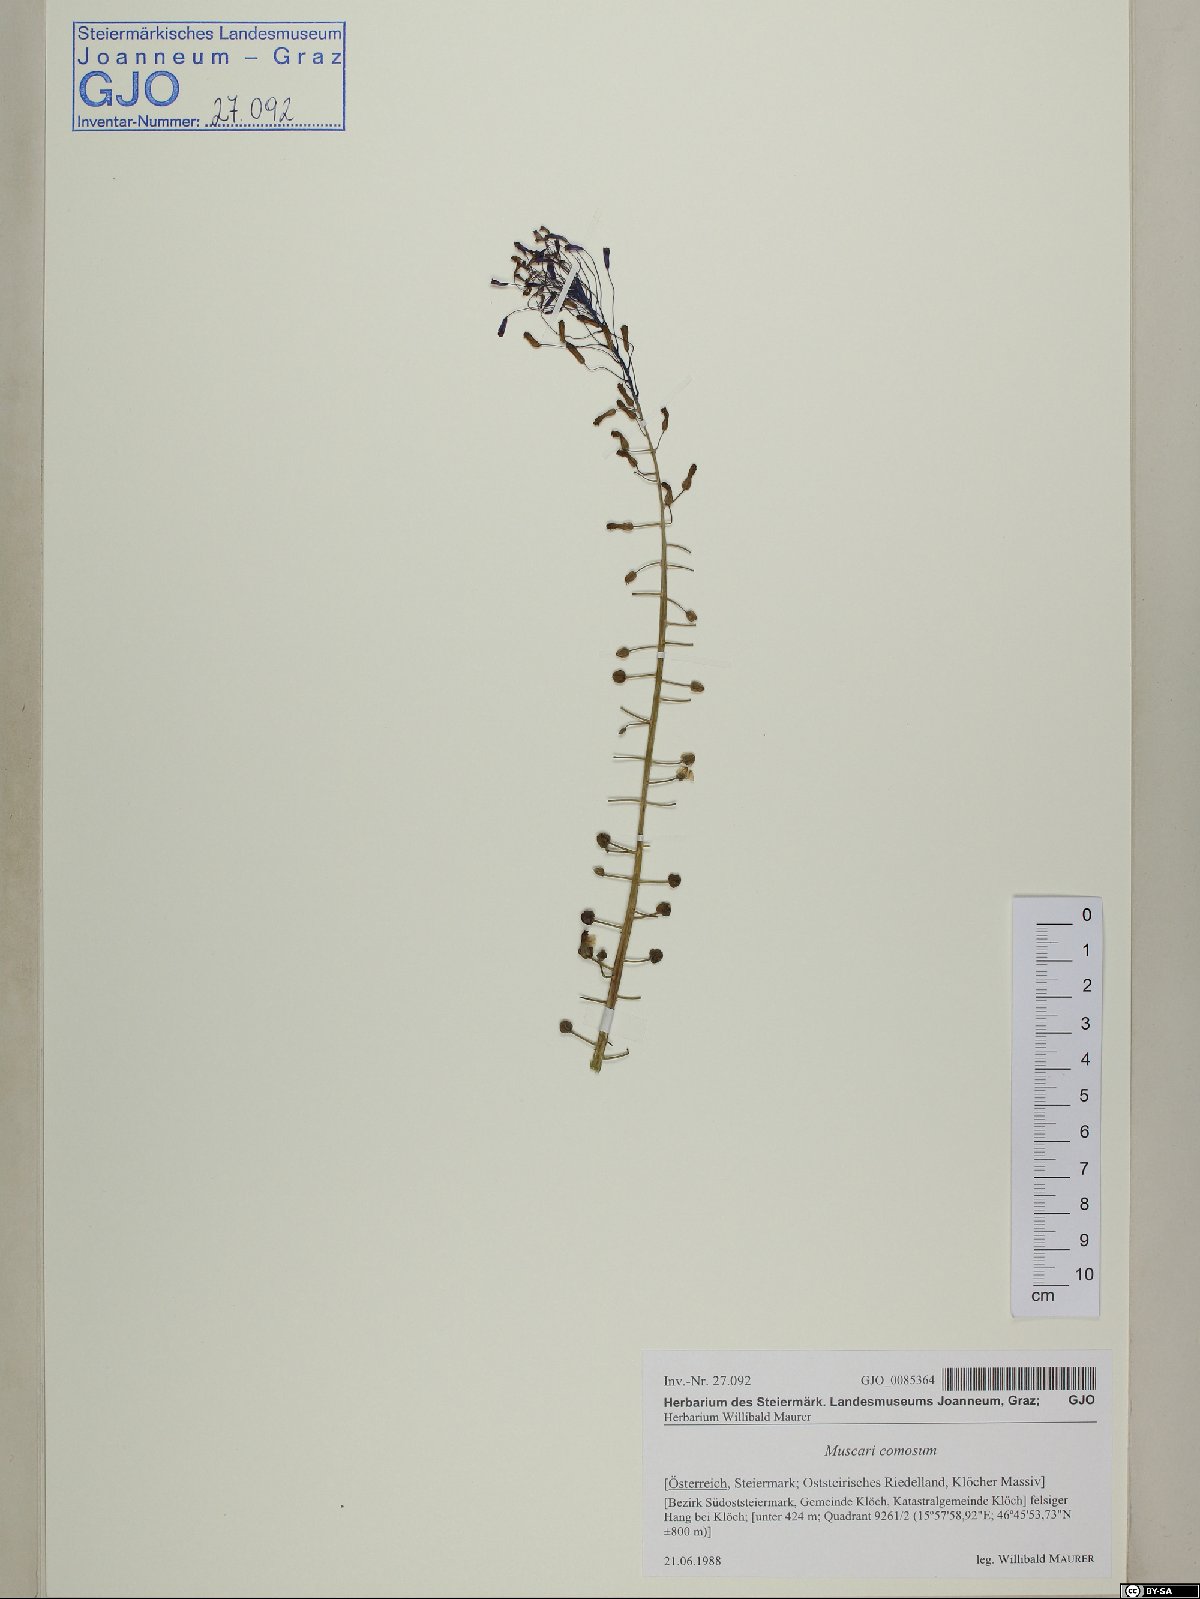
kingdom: Plantae
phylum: Tracheophyta
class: Liliopsida
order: Asparagales
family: Asparagaceae
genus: Muscari
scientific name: Muscari comosum
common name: Tassel hyacinth
